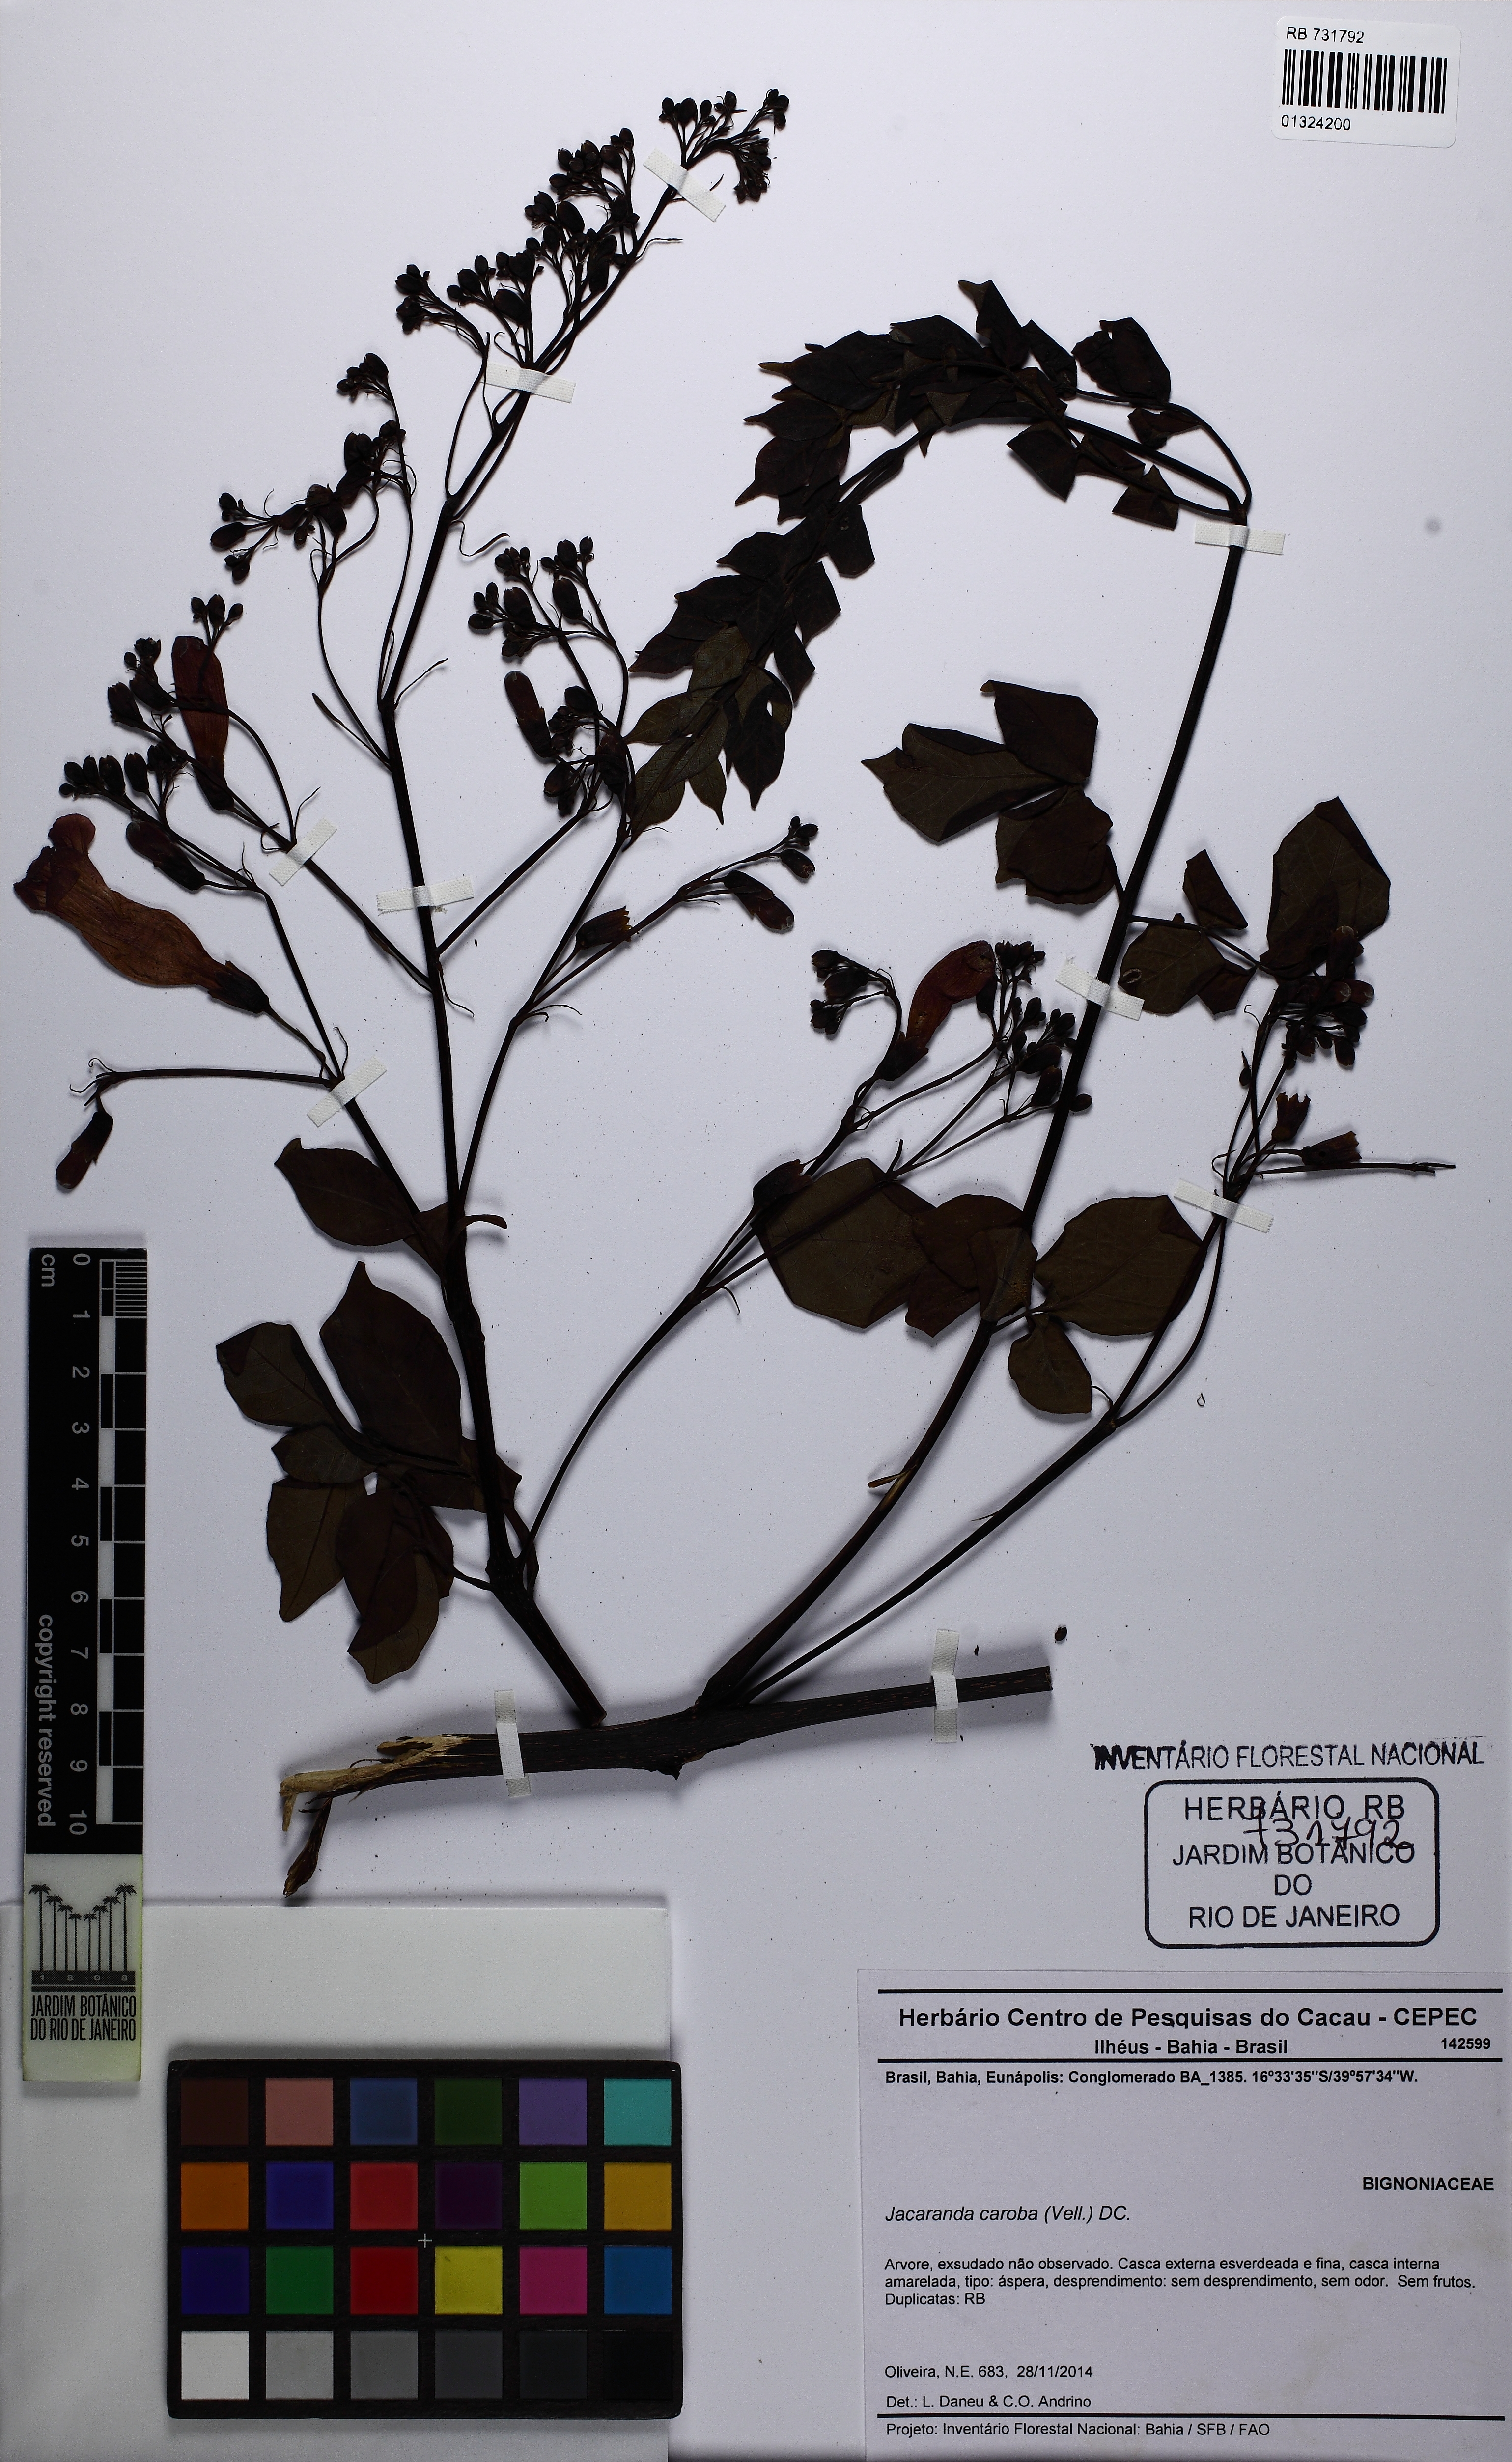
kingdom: Plantae
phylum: Tracheophyta
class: Magnoliopsida
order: Lamiales
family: Bignoniaceae
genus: Jacaranda
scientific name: Jacaranda caroba
